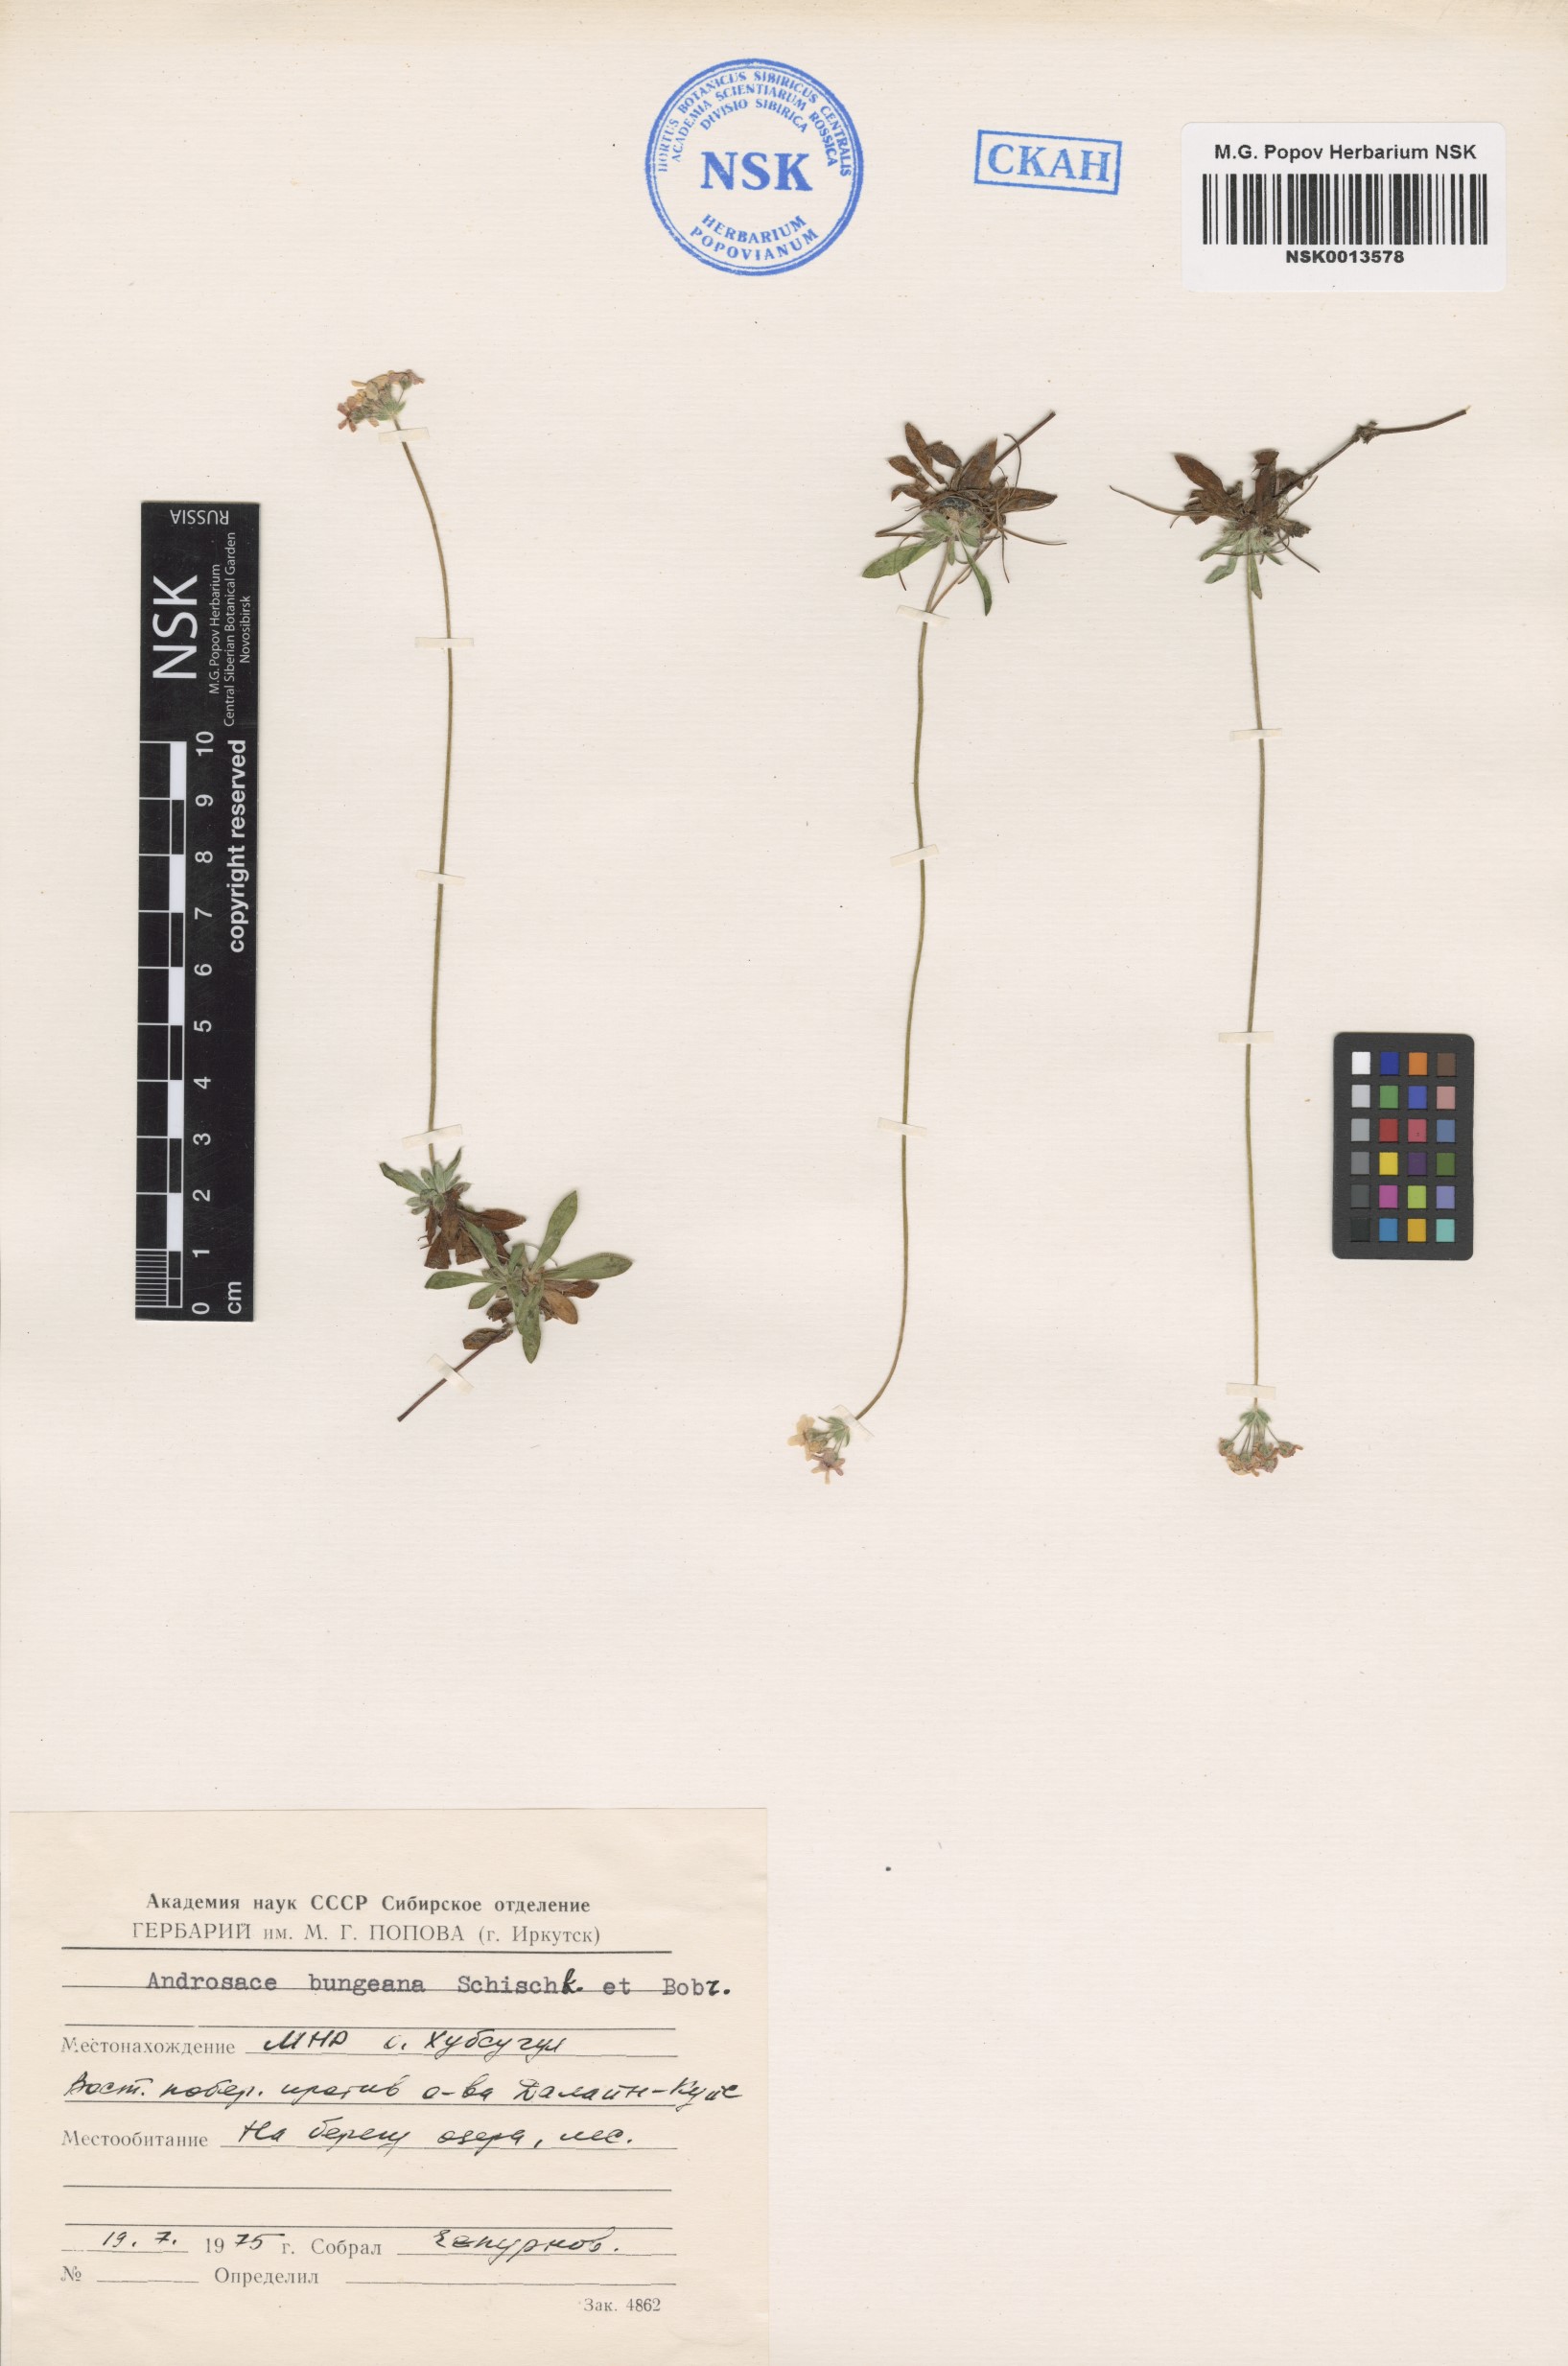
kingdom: Plantae
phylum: Tracheophyta
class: Magnoliopsida
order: Ericales
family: Primulaceae
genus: Androsace
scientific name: Androsace bungeana
